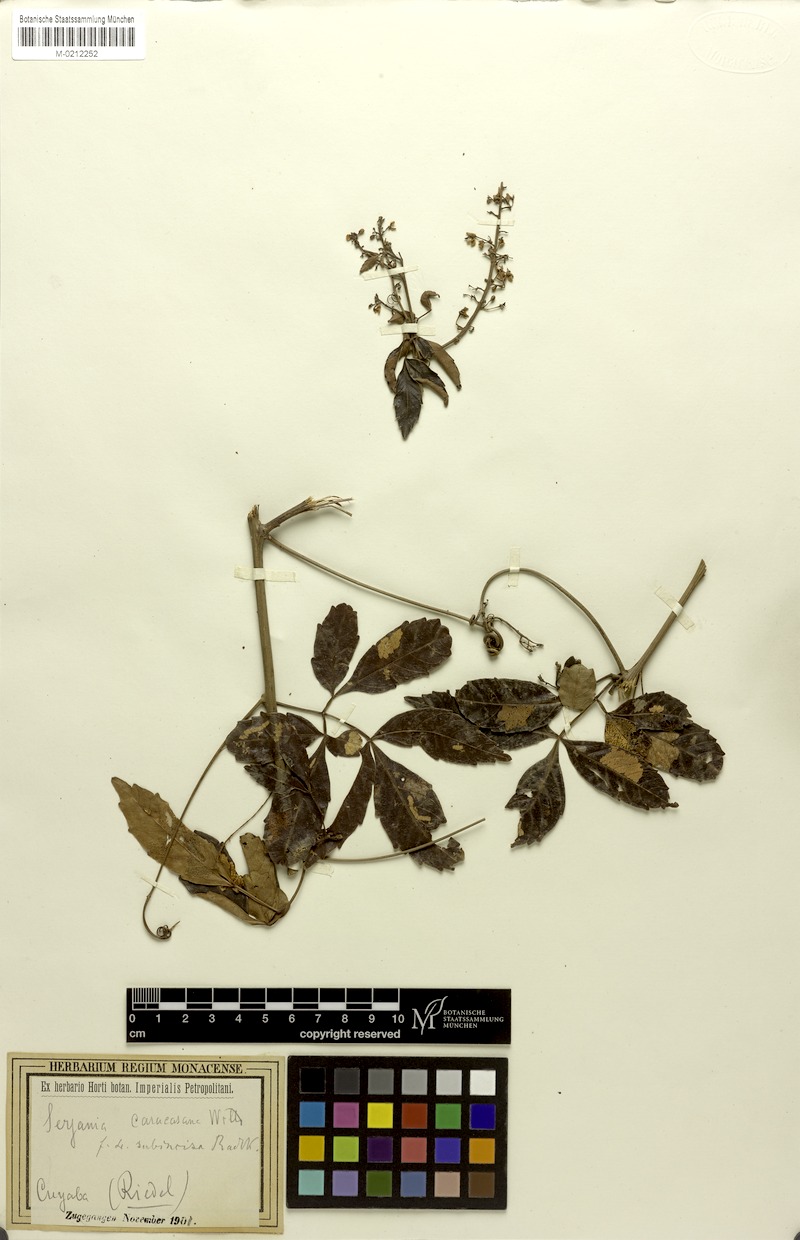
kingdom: Plantae
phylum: Tracheophyta
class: Magnoliopsida
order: Sapindales
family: Sapindaceae
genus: Serjania
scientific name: Serjania caracasana
